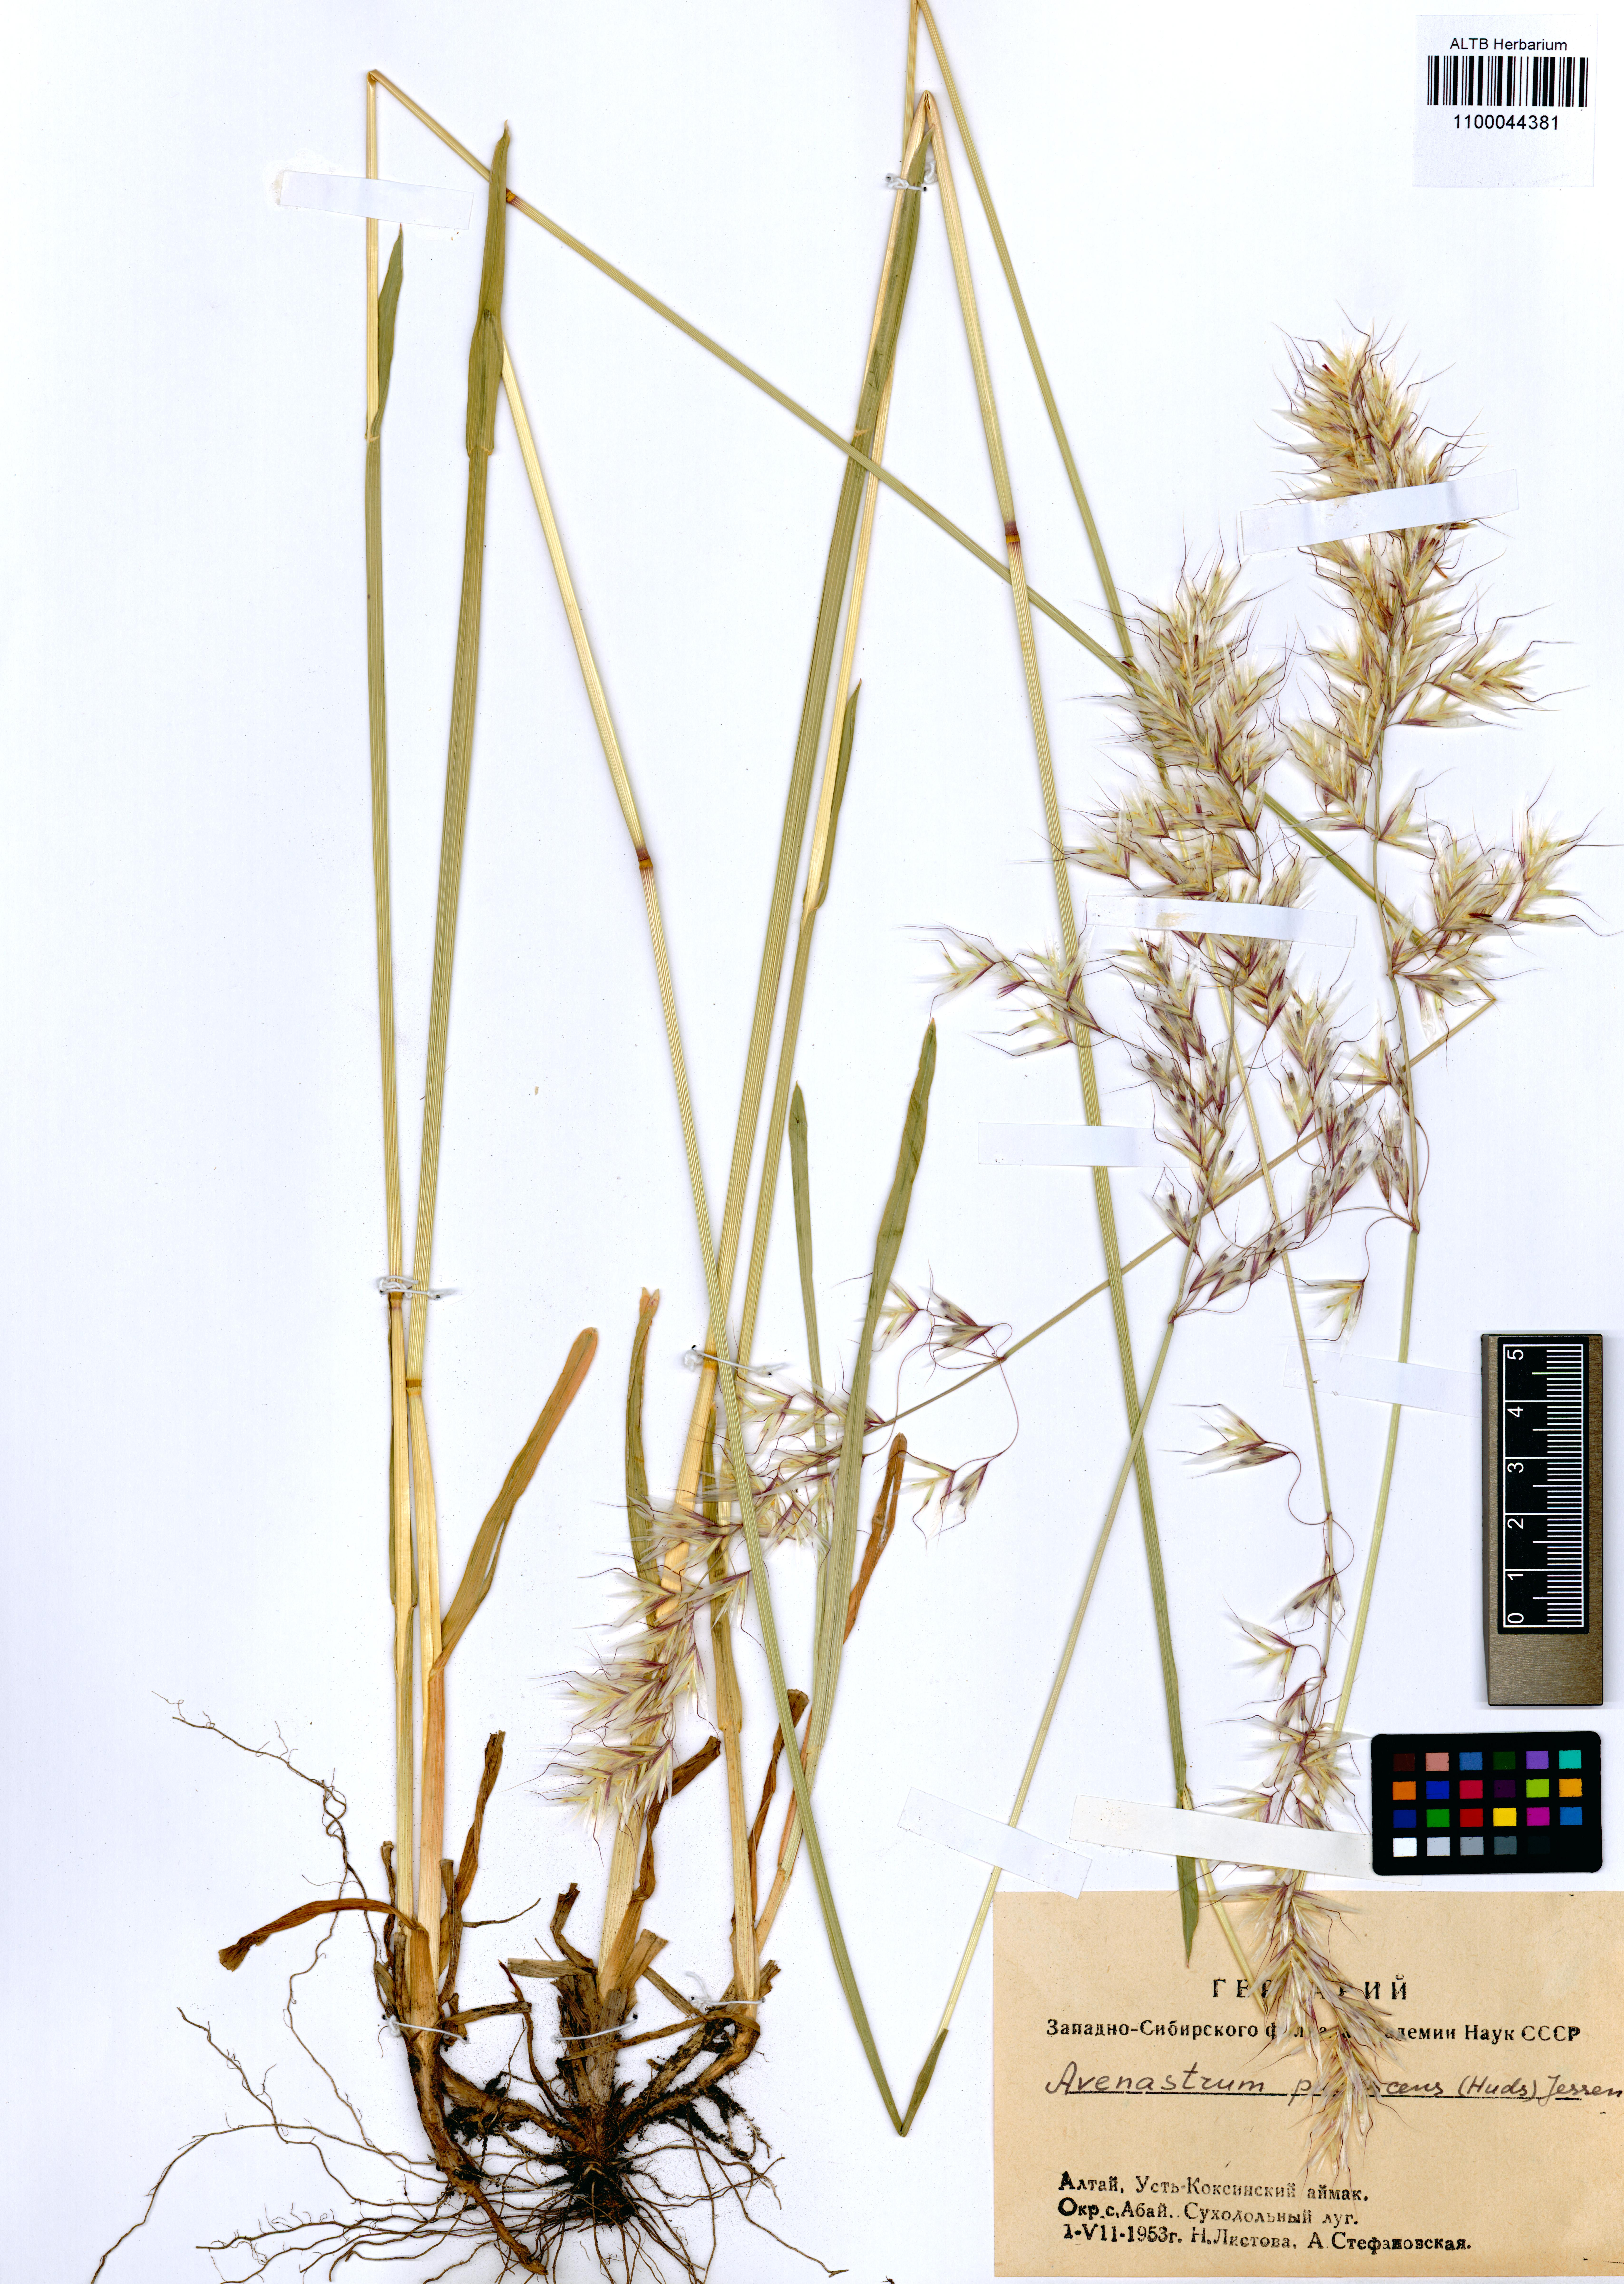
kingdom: Plantae
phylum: Tracheophyta
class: Liliopsida
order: Poales
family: Poaceae
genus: Avenula
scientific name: Avenula pubescens
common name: Downy alpine oatgrass
